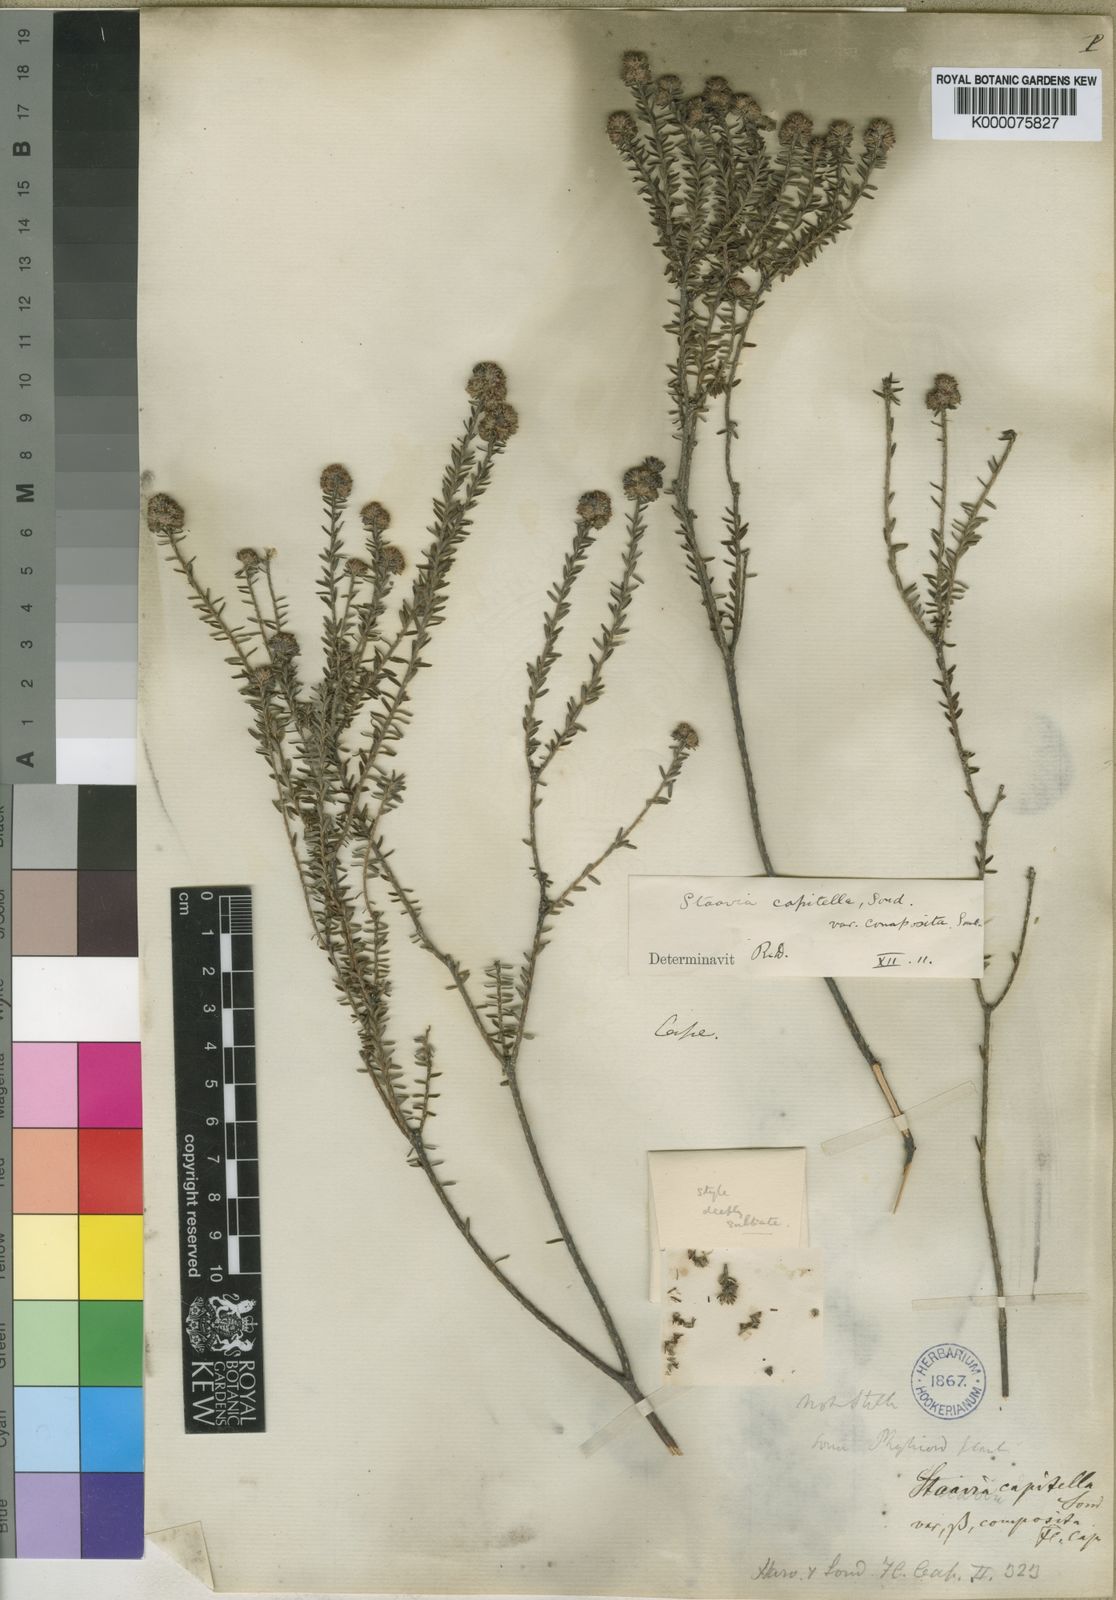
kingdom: Plantae
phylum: Tracheophyta
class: Magnoliopsida
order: Bruniales
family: Bruniaceae
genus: Staavia
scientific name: Staavia capitella
